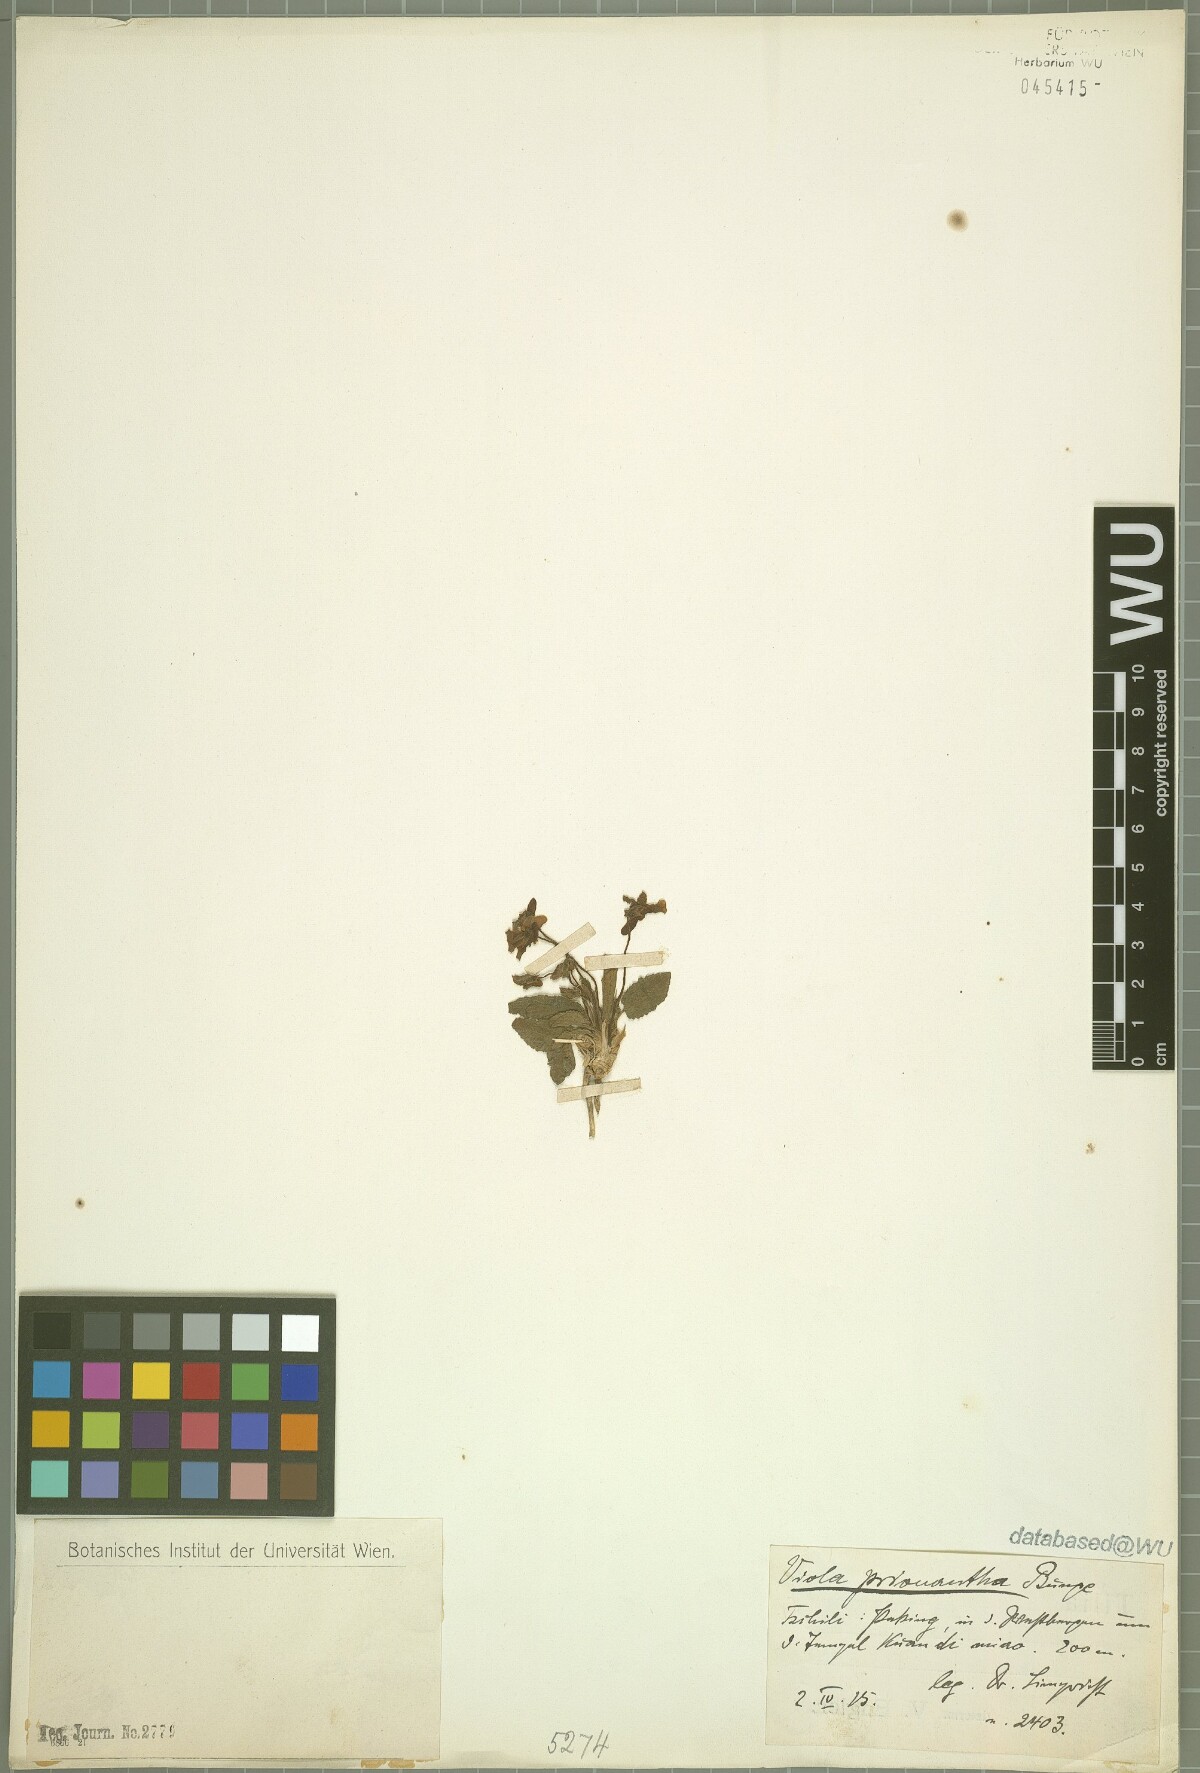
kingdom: Plantae
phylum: Tracheophyta
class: Magnoliopsida
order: Malpighiales
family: Violaceae
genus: Viola
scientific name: Viola prionantha
